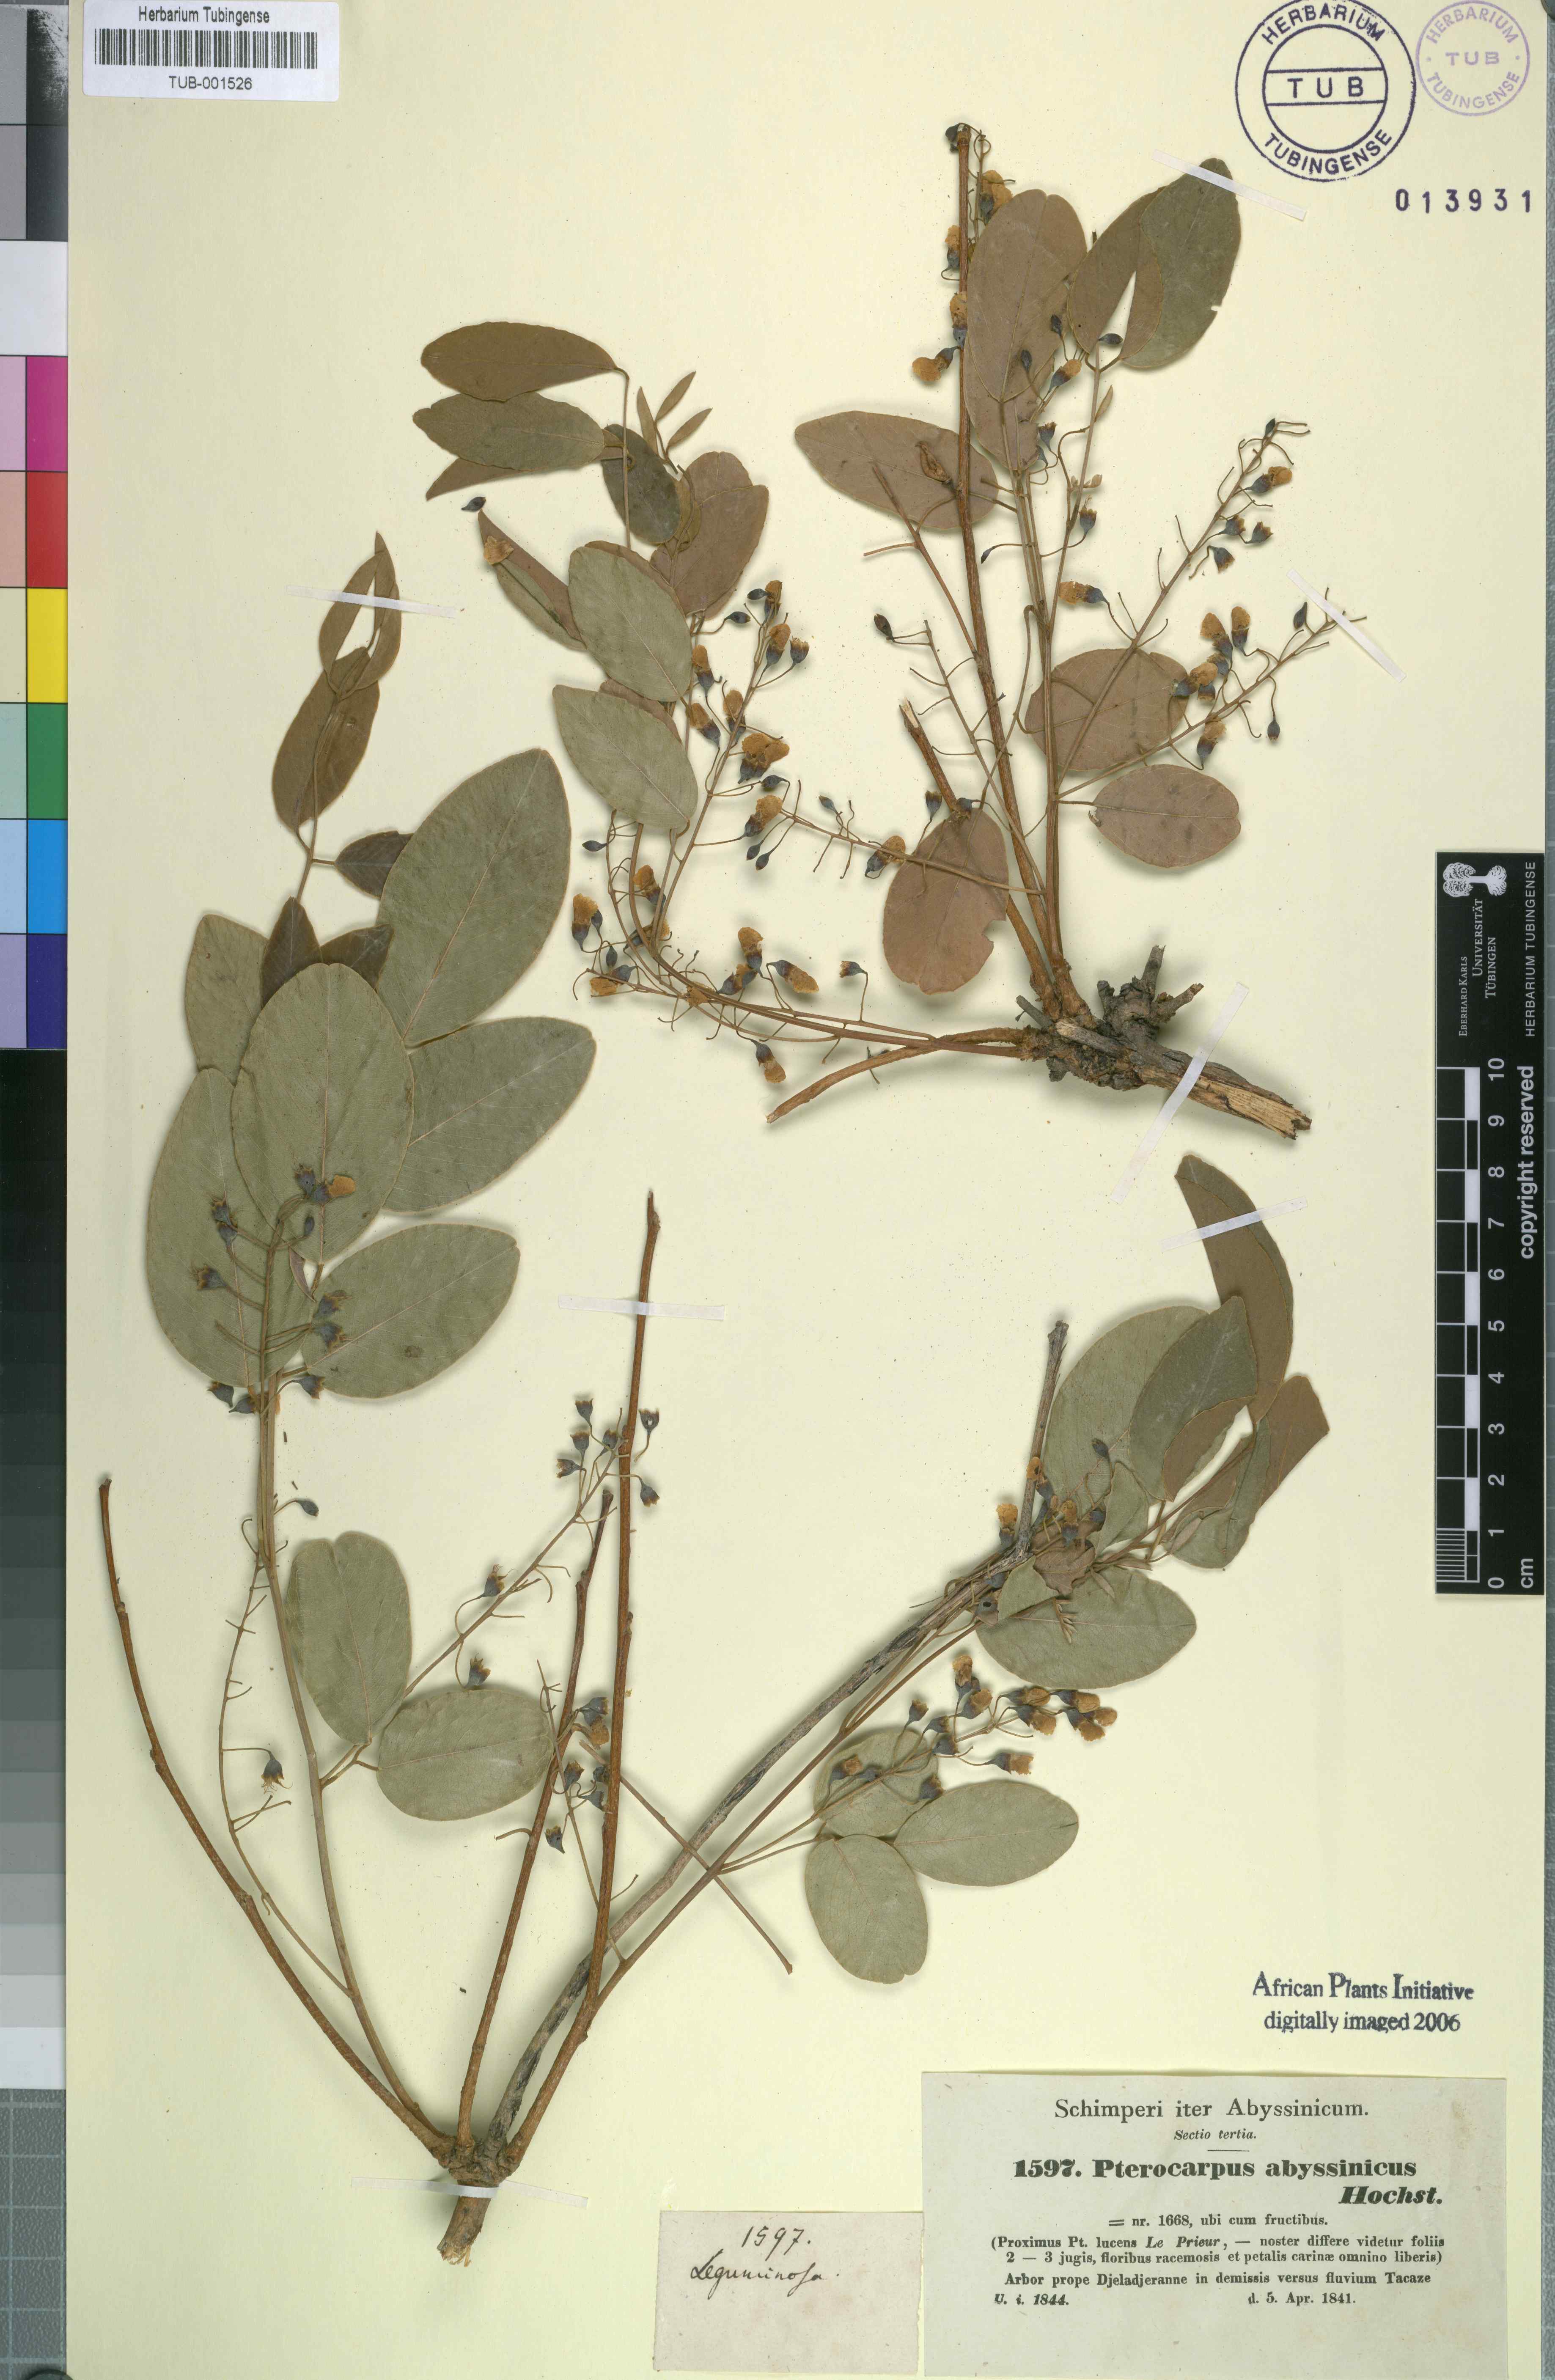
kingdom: Plantae
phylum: Tracheophyta
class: Magnoliopsida
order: Fabales
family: Fabaceae
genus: Pterocarpus
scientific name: Pterocarpus lucens
